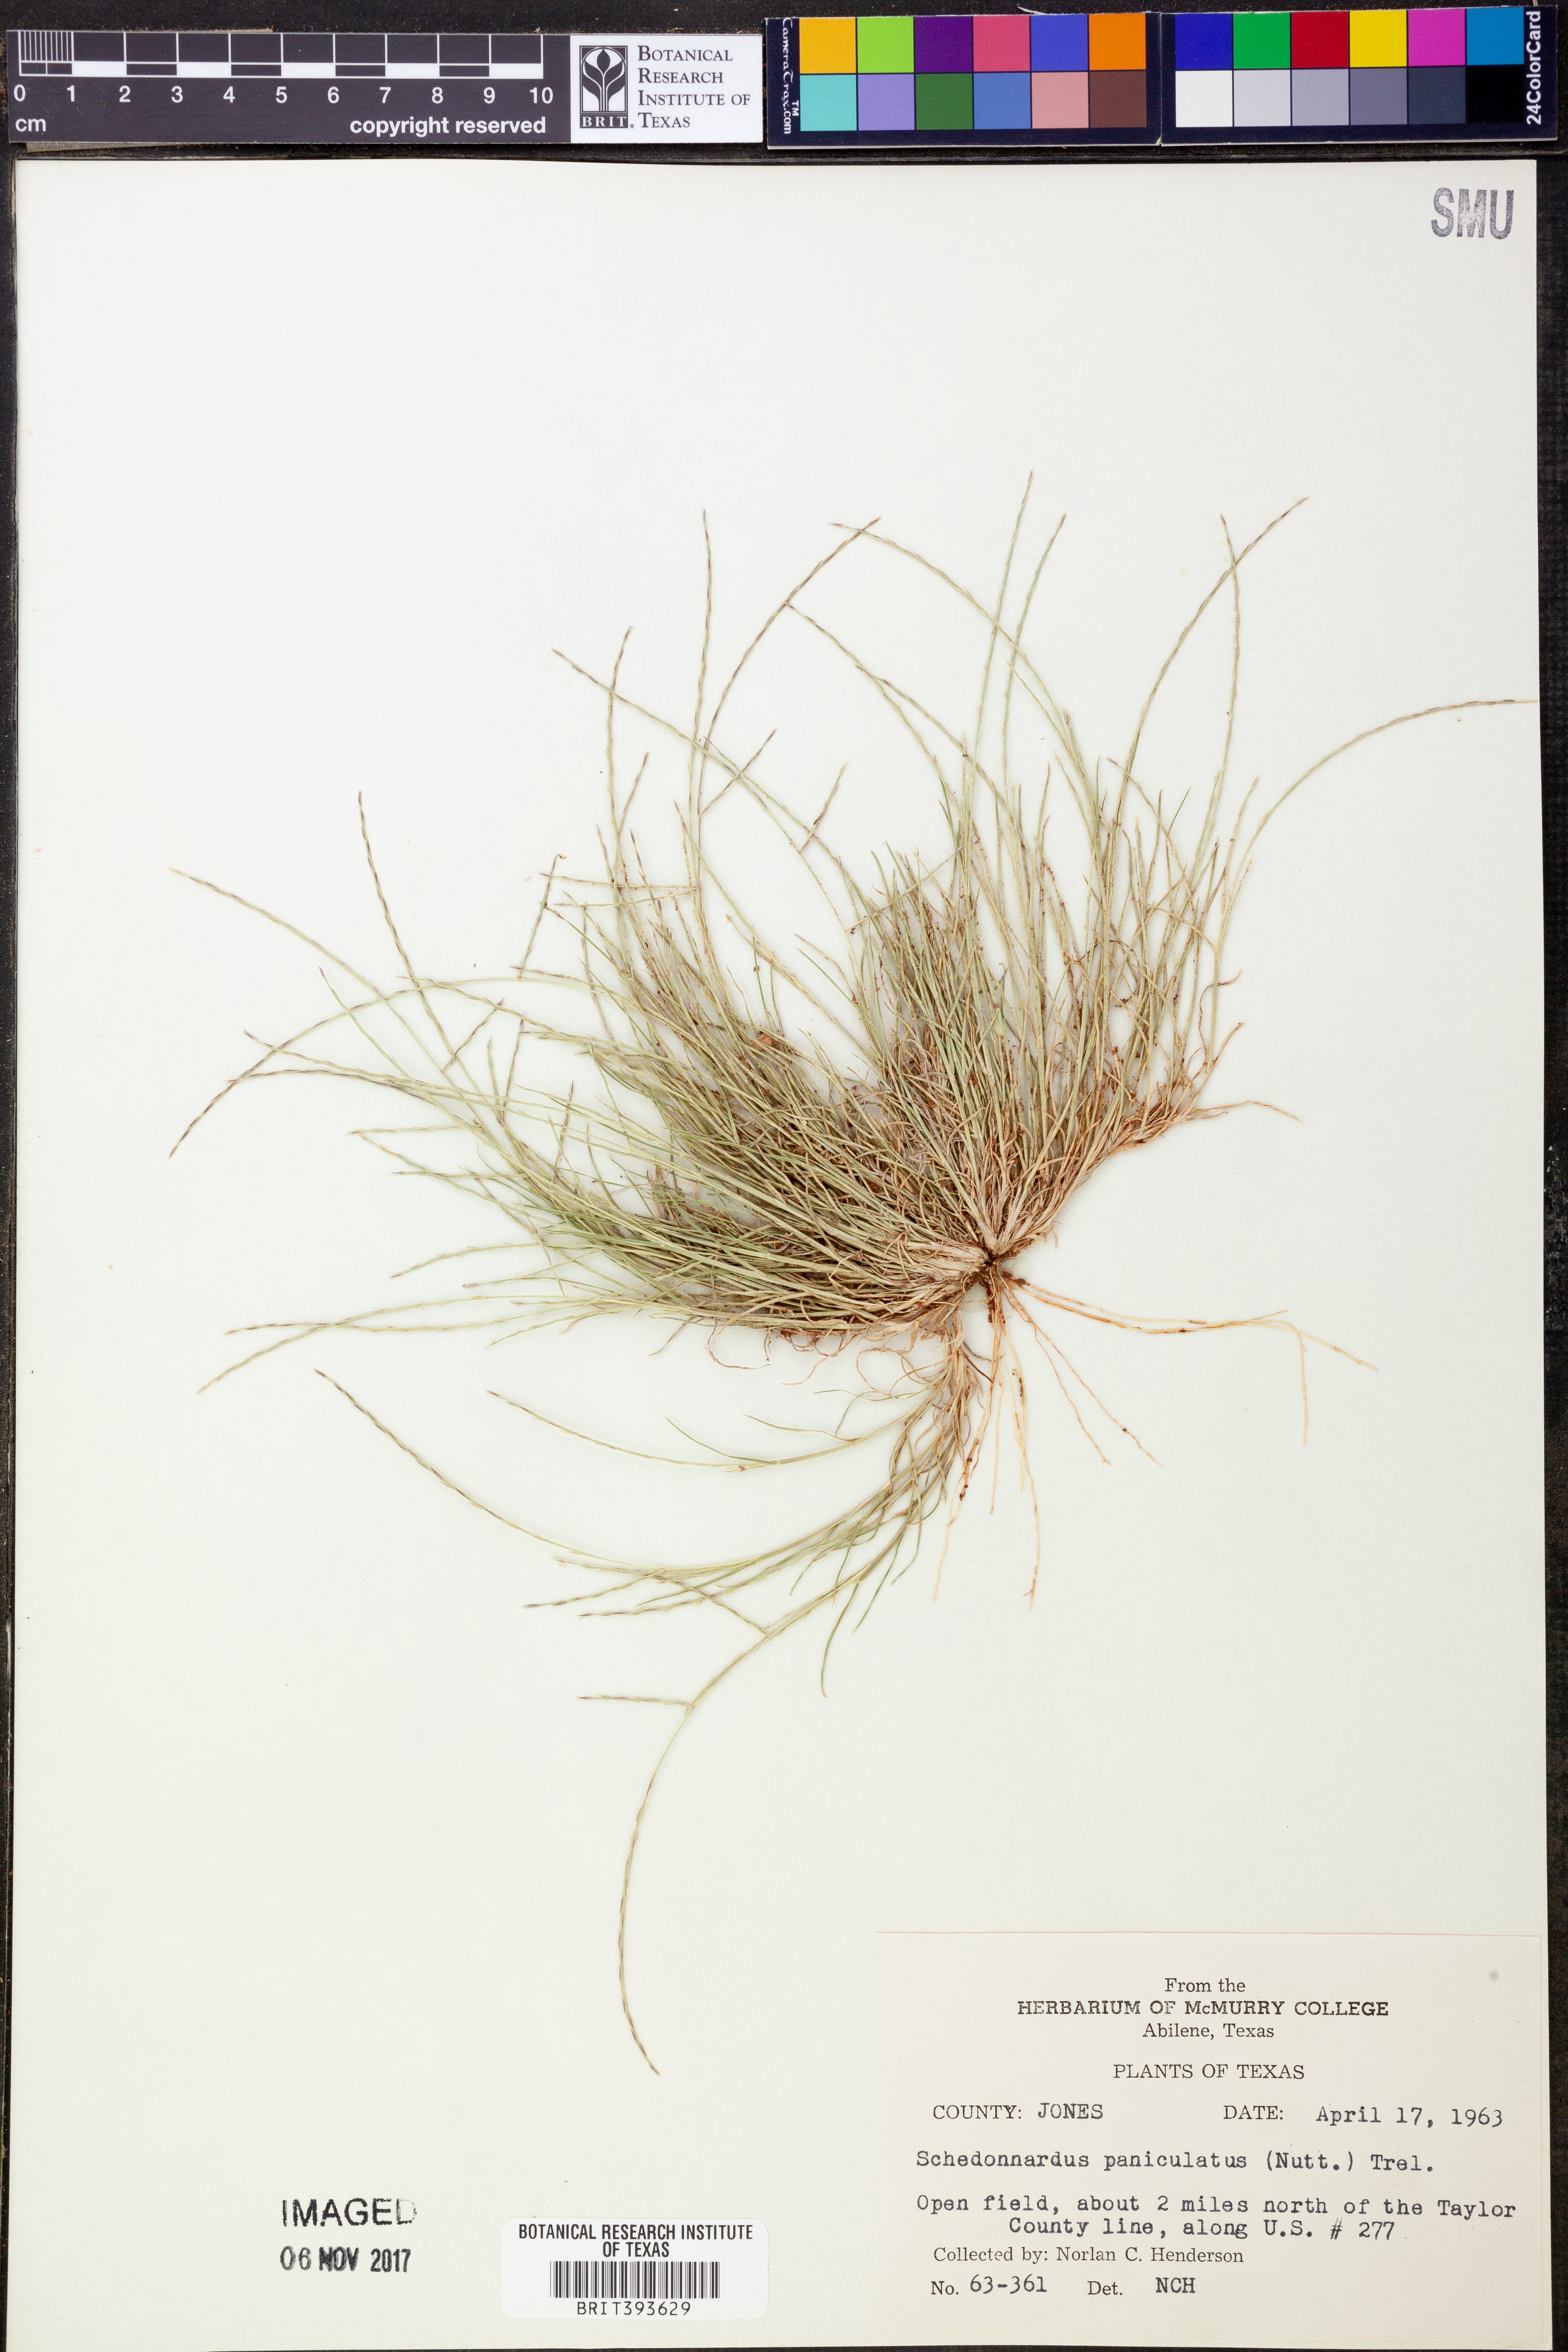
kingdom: Plantae
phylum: Tracheophyta
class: Liliopsida
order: Poales
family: Poaceae
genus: Muhlenbergia
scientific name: Muhlenbergia paniculata
